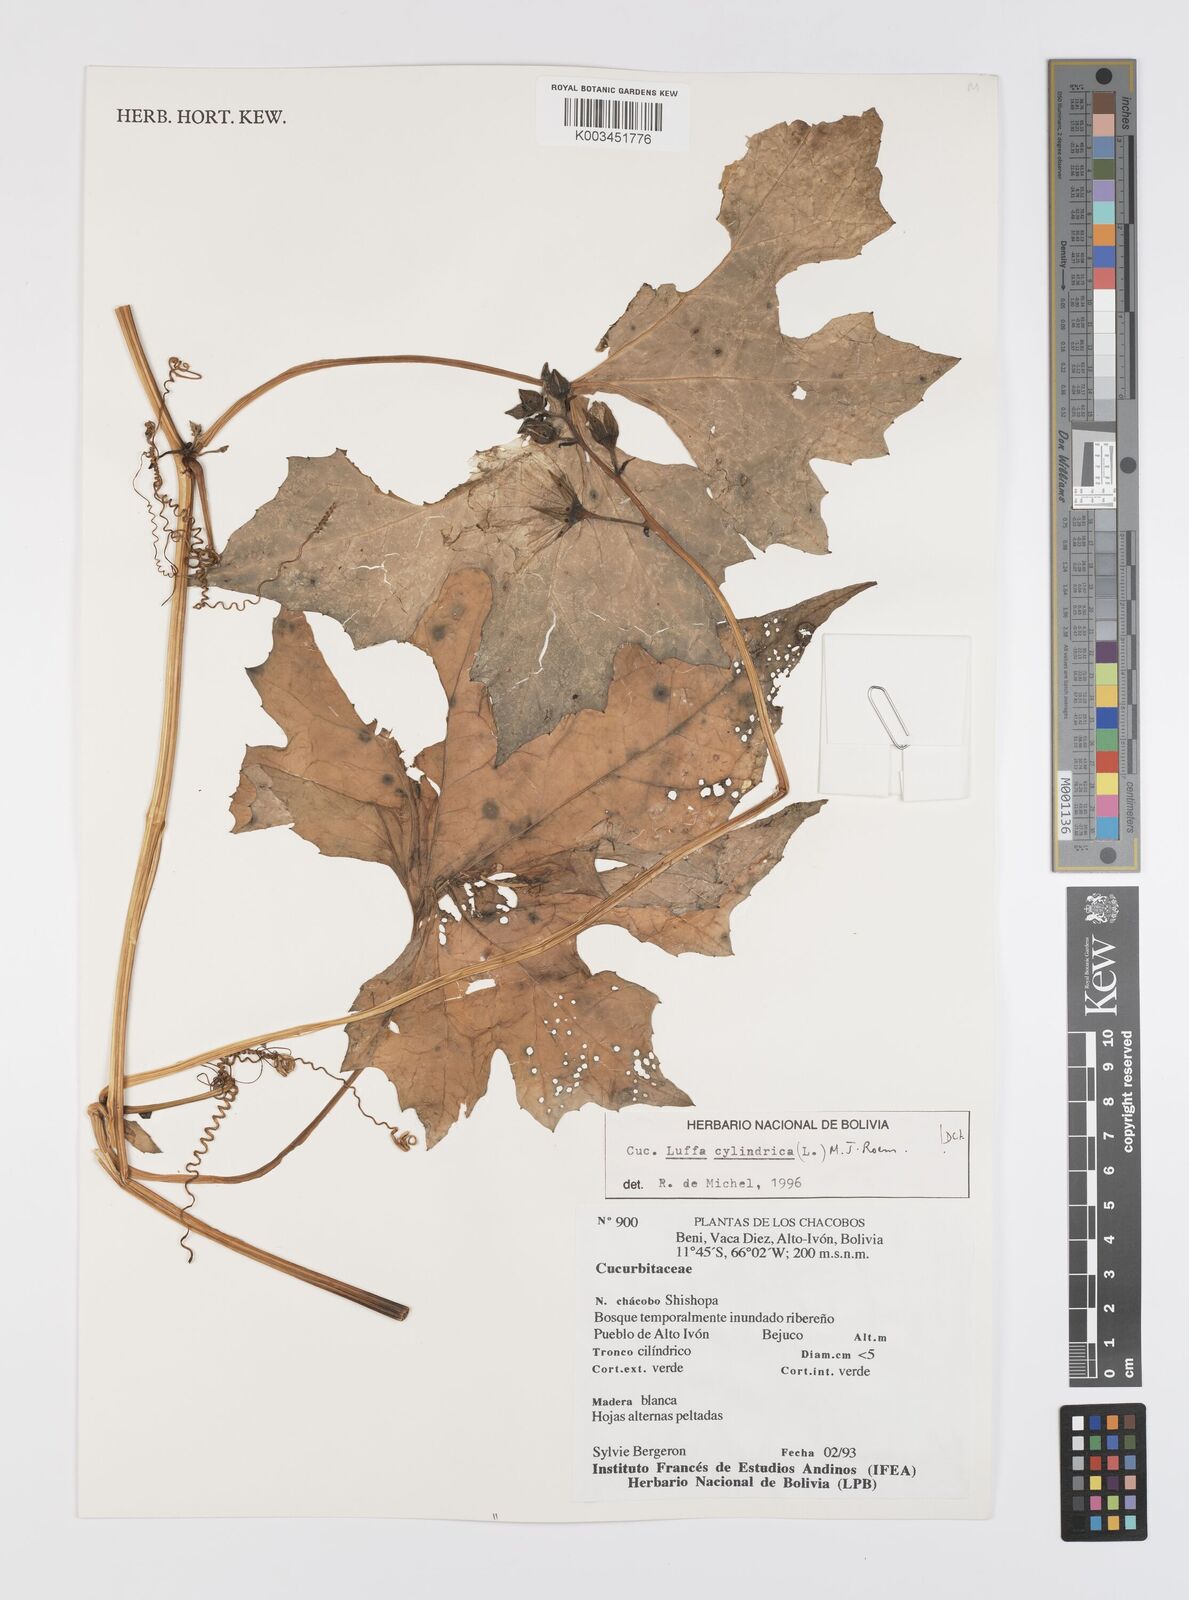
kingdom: Plantae
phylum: Tracheophyta
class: Magnoliopsida
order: Cucurbitales
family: Cucurbitaceae
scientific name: Cucurbitaceae
